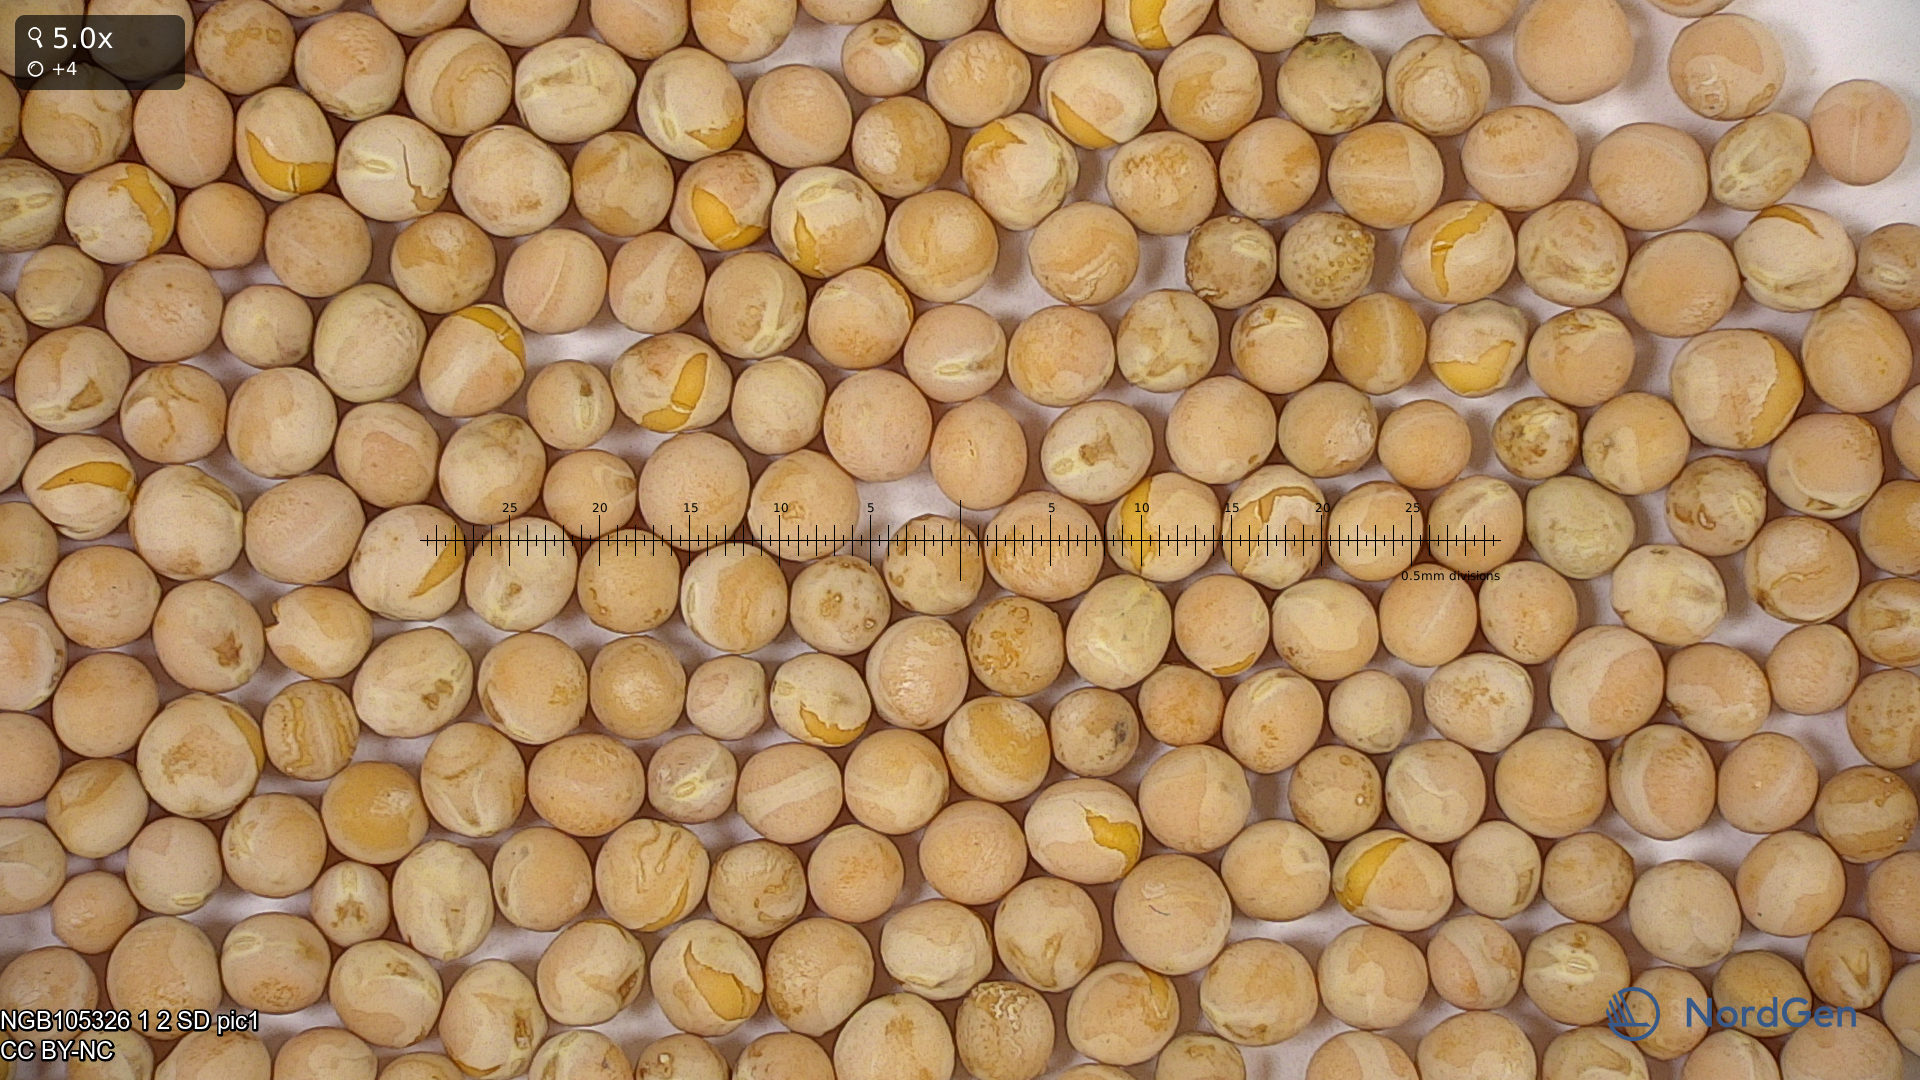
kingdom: Plantae
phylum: Tracheophyta
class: Magnoliopsida
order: Fabales
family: Fabaceae
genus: Lathyrus
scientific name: Lathyrus oleraceus
